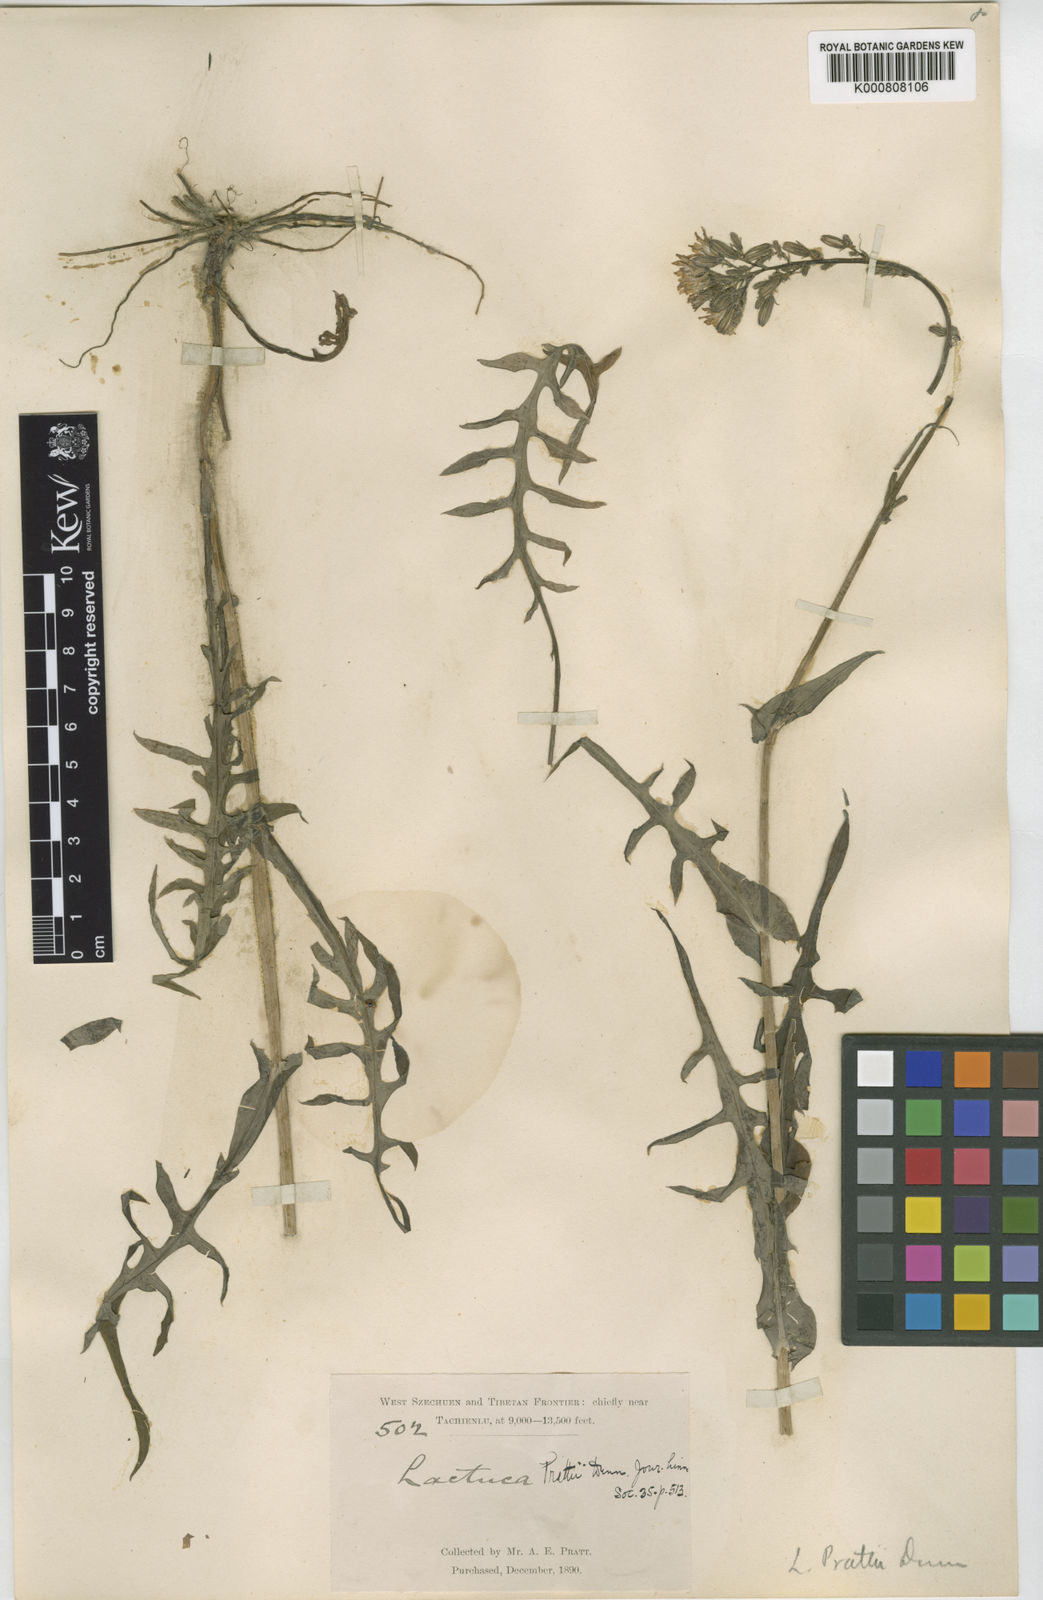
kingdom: Plantae
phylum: Tracheophyta
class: Magnoliopsida
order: Asterales
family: Asteraceae
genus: Cicerbita
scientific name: Cicerbita roborowskii
